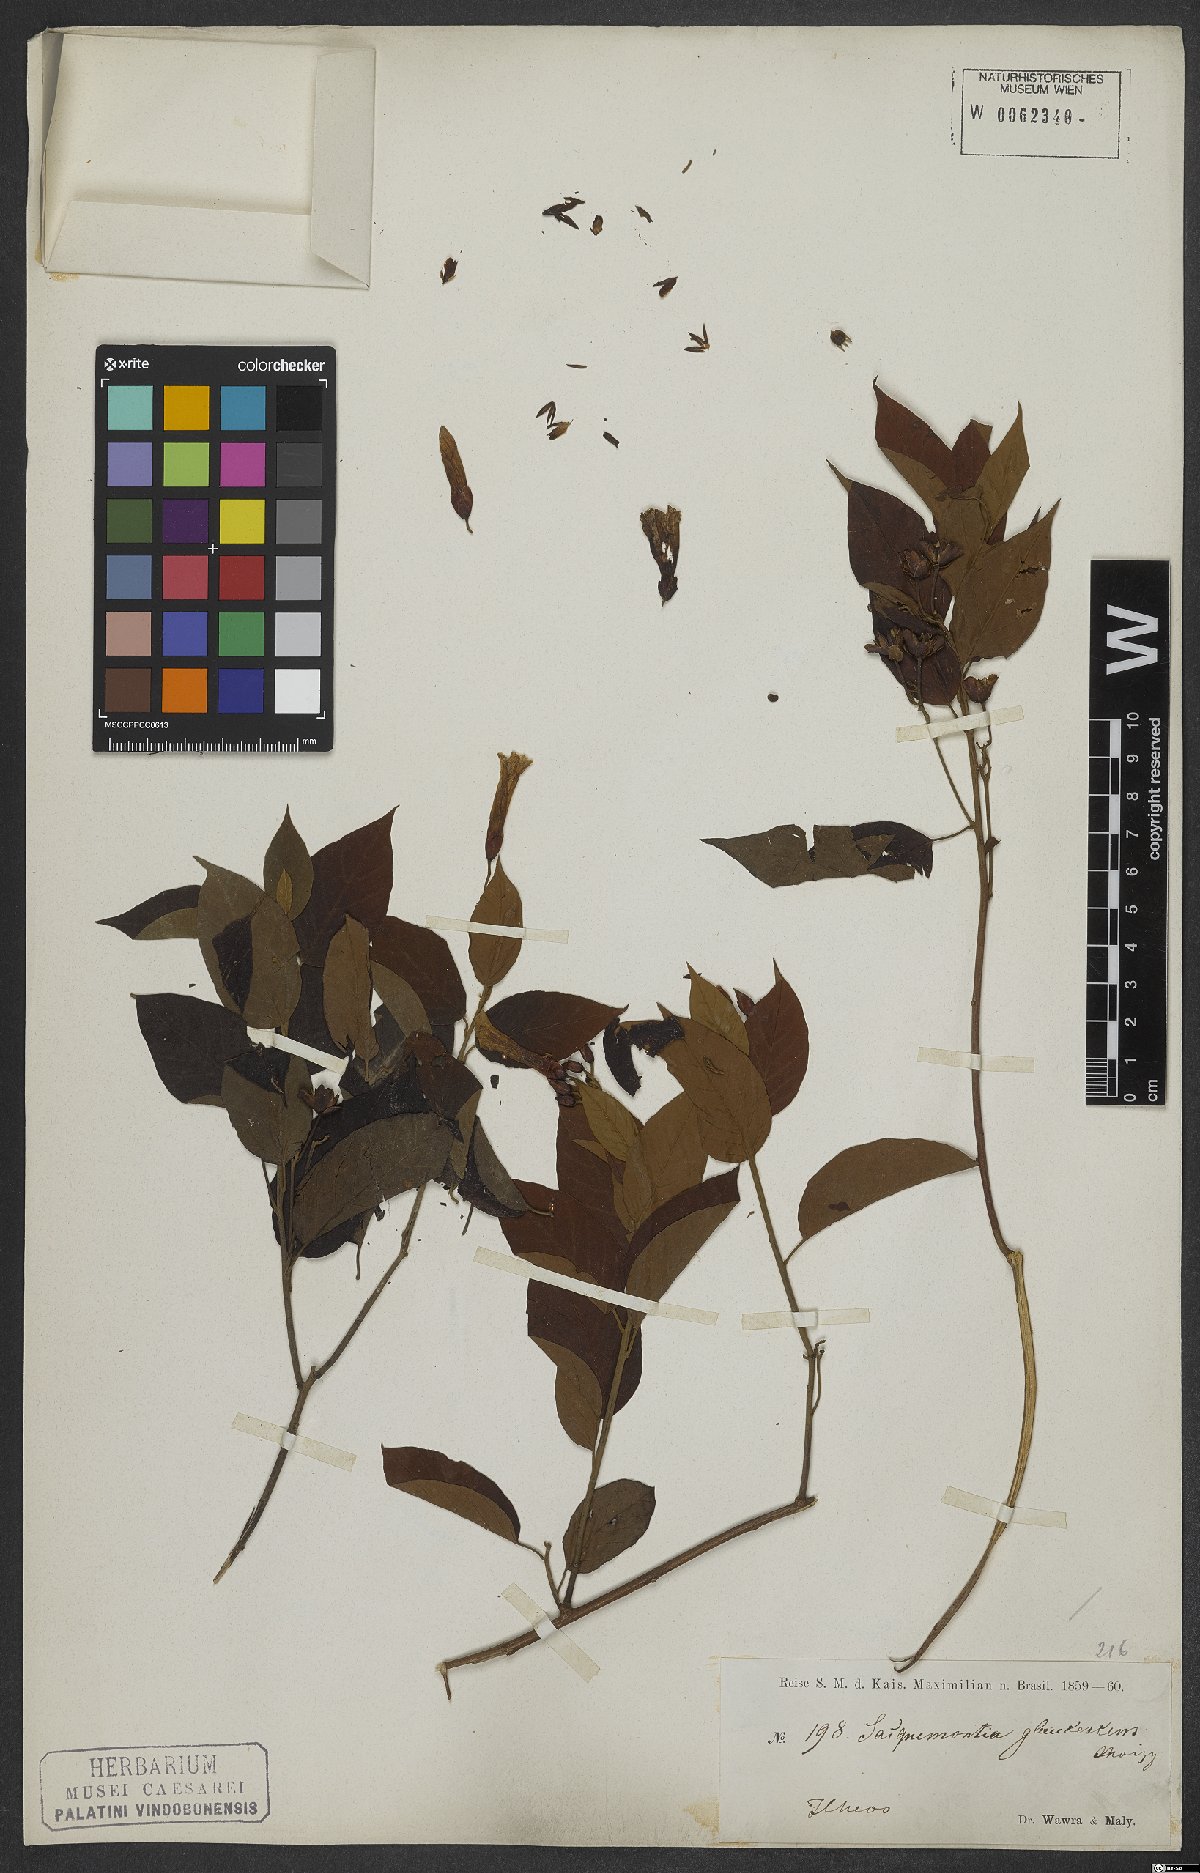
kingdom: Plantae
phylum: Tracheophyta
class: Magnoliopsida
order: Solanales
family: Convolvulaceae
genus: Jacquemontia
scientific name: Jacquemontia glaucescens
